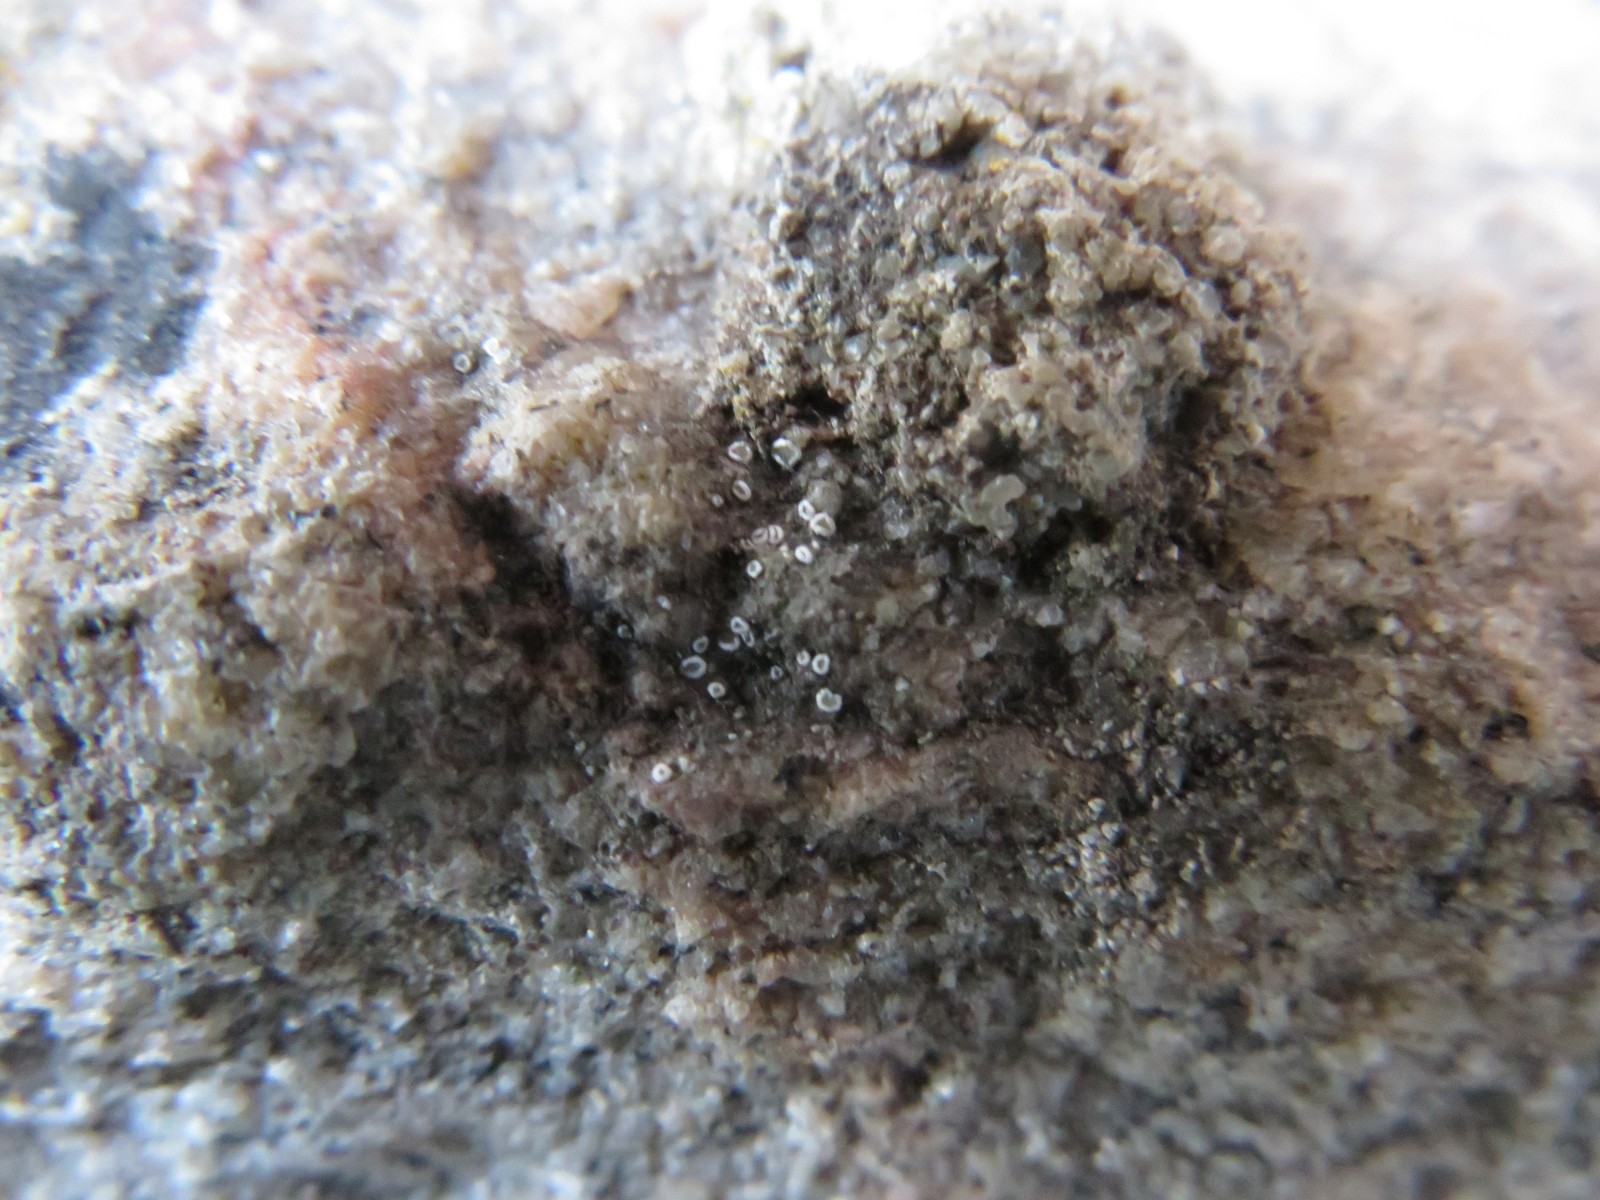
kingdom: Fungi
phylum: Ascomycota
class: Lecanoromycetes
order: Lecanorales
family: Lecanoraceae
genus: Polyozosia
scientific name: Polyozosia dispersa
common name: spredt kantskivelav
